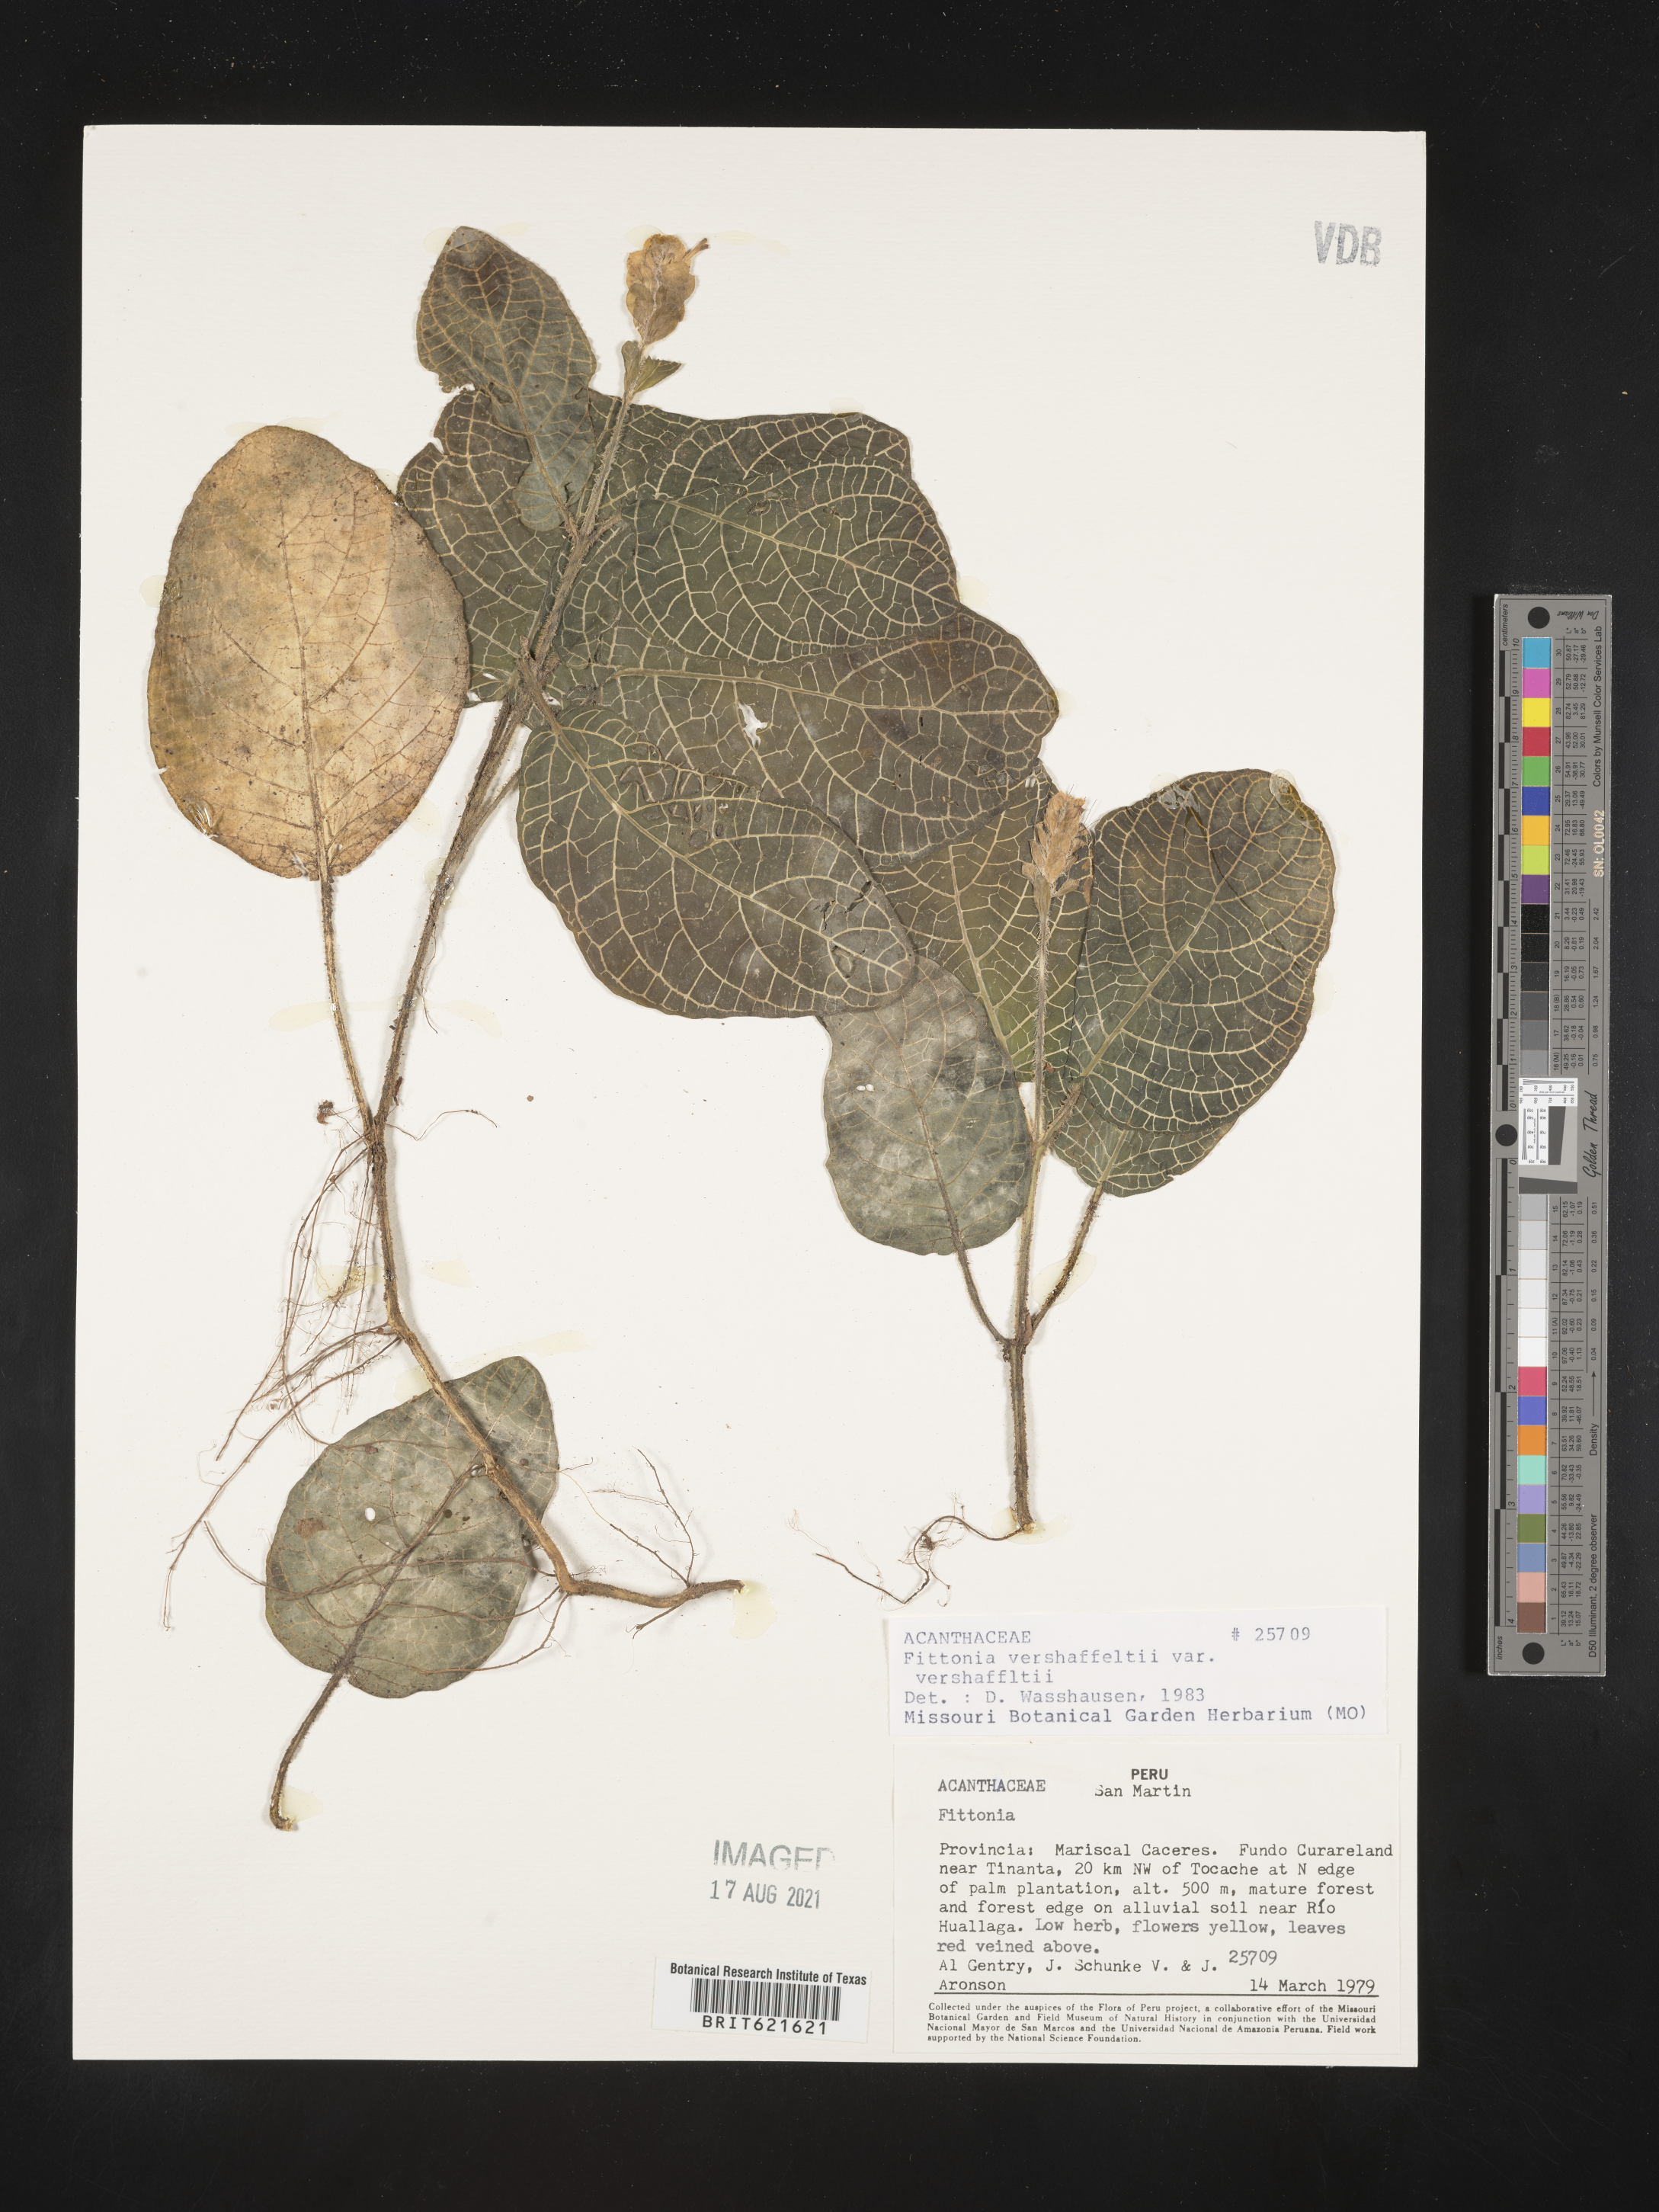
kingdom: Plantae
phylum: Tracheophyta
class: Magnoliopsida
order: Lamiales
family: Acanthaceae
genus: Fittonia
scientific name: Fittonia
